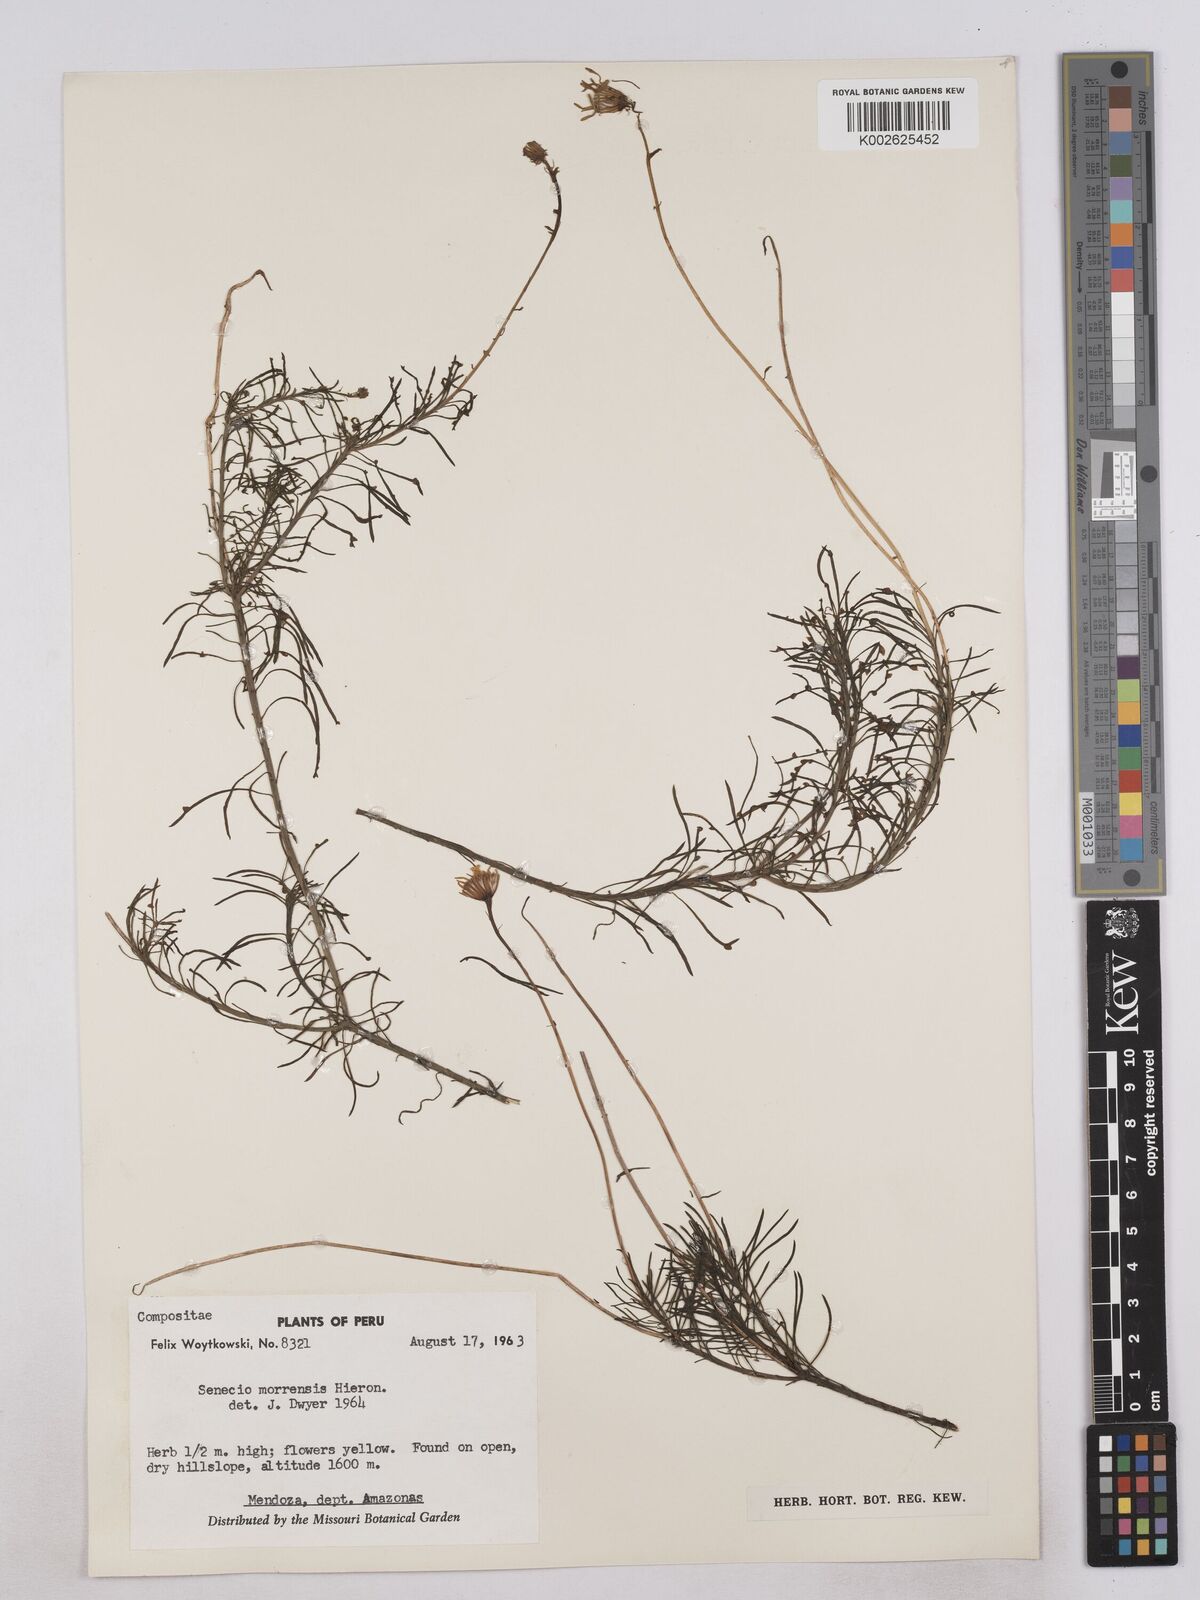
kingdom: Plantae
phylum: Tracheophyta
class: Magnoliopsida
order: Asterales
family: Asteraceae
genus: Senecio
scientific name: Senecio laricifolius
